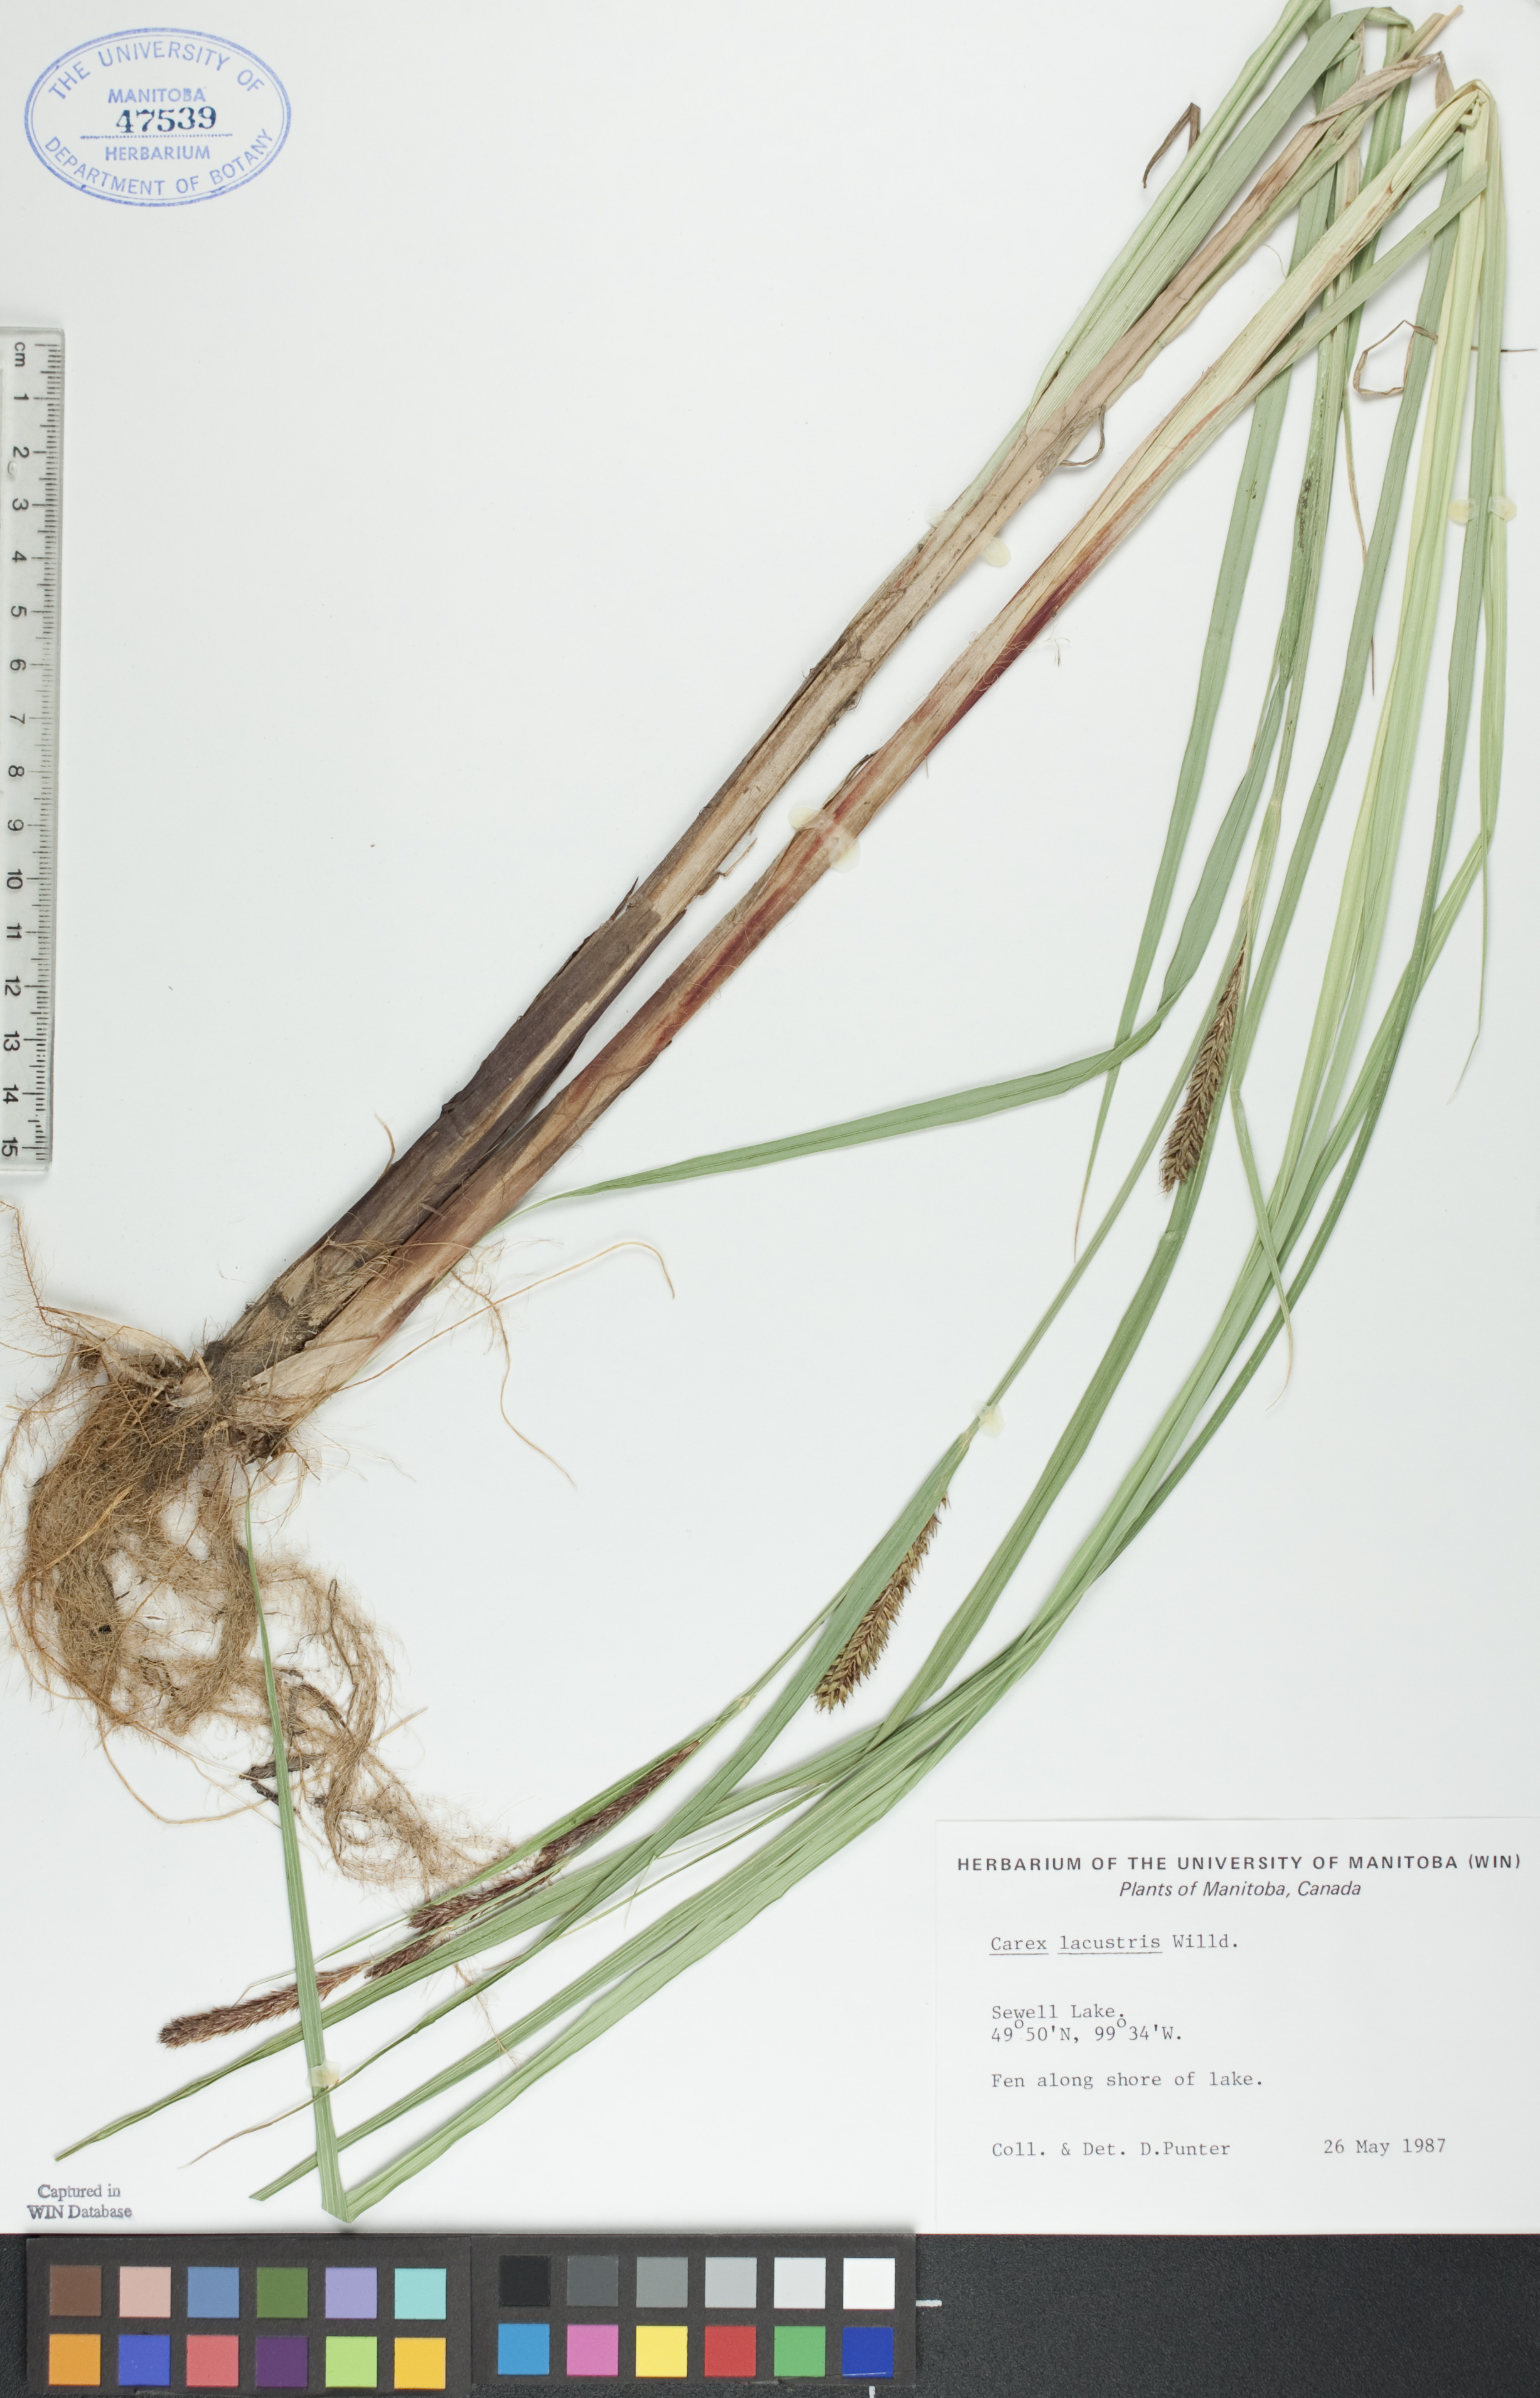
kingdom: Plantae
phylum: Tracheophyta
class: Liliopsida
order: Poales
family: Cyperaceae
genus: Carex
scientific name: Carex lacustris
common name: Common lake sedge
